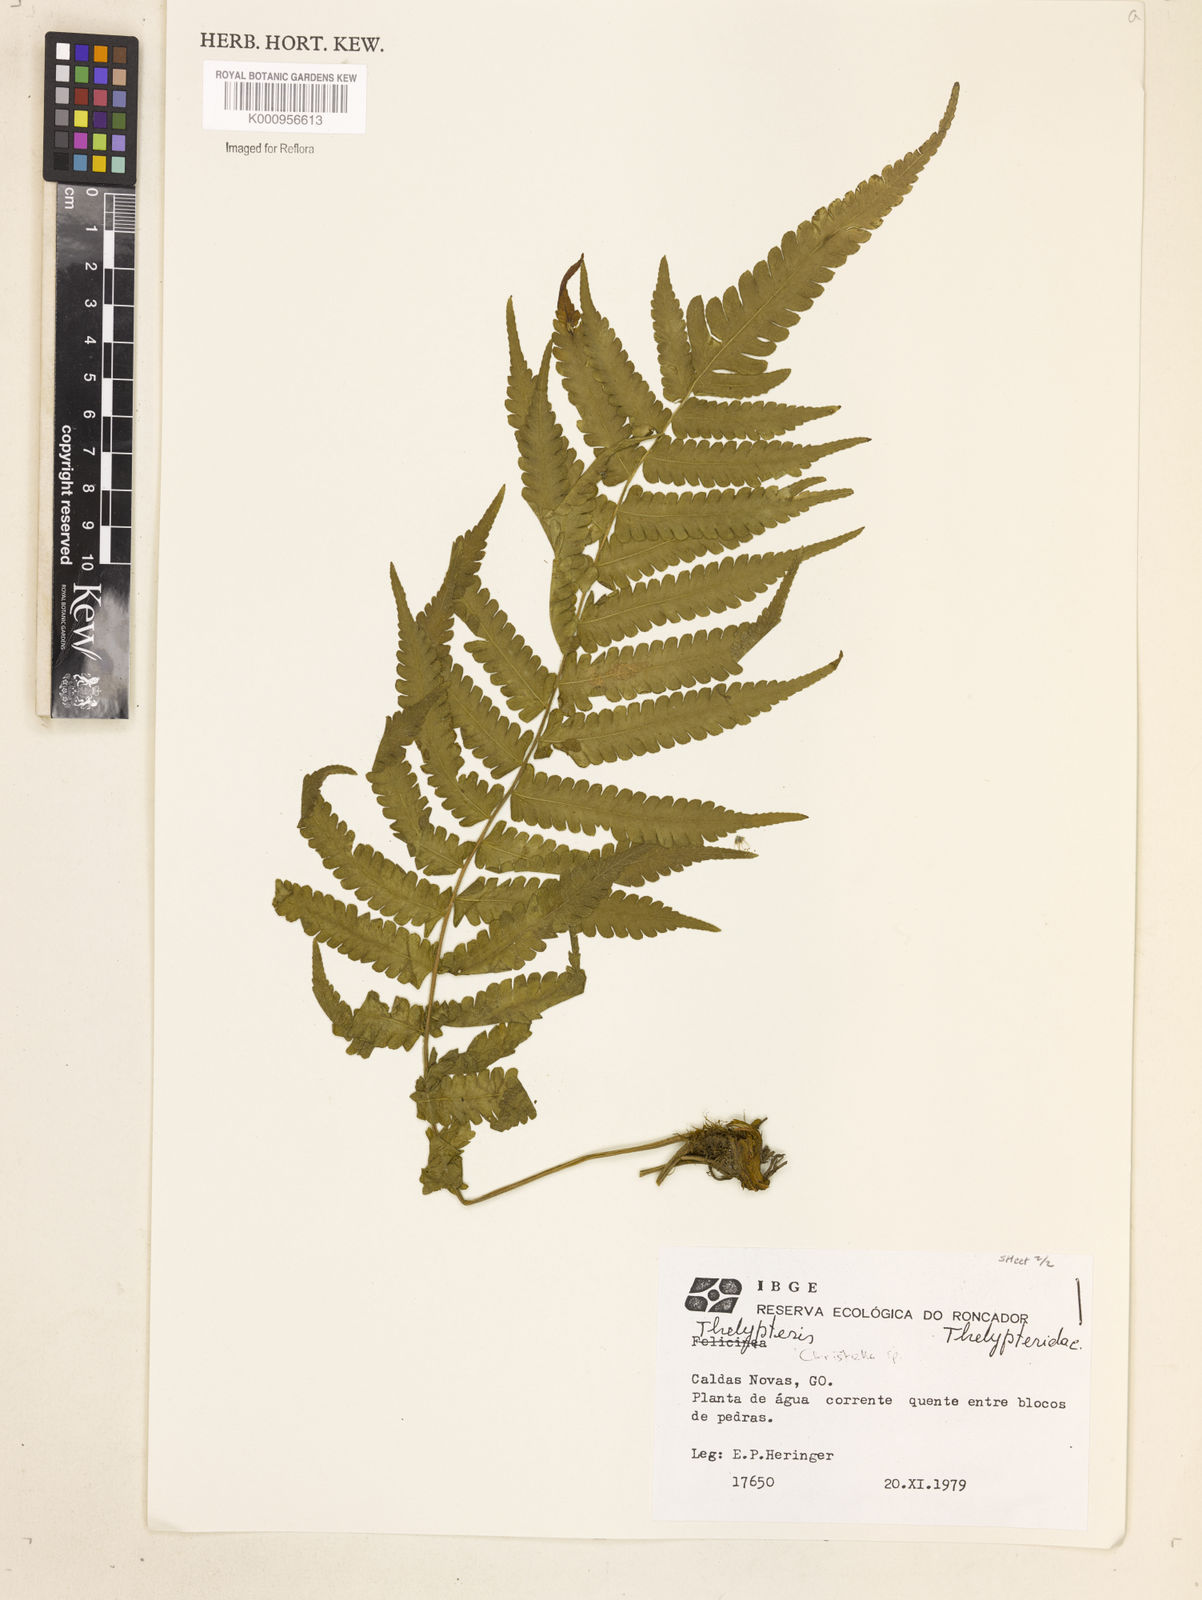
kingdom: Plantae
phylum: Tracheophyta
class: Polypodiopsida
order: Polypodiales
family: Thelypteridaceae
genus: Christella
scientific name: Christella
